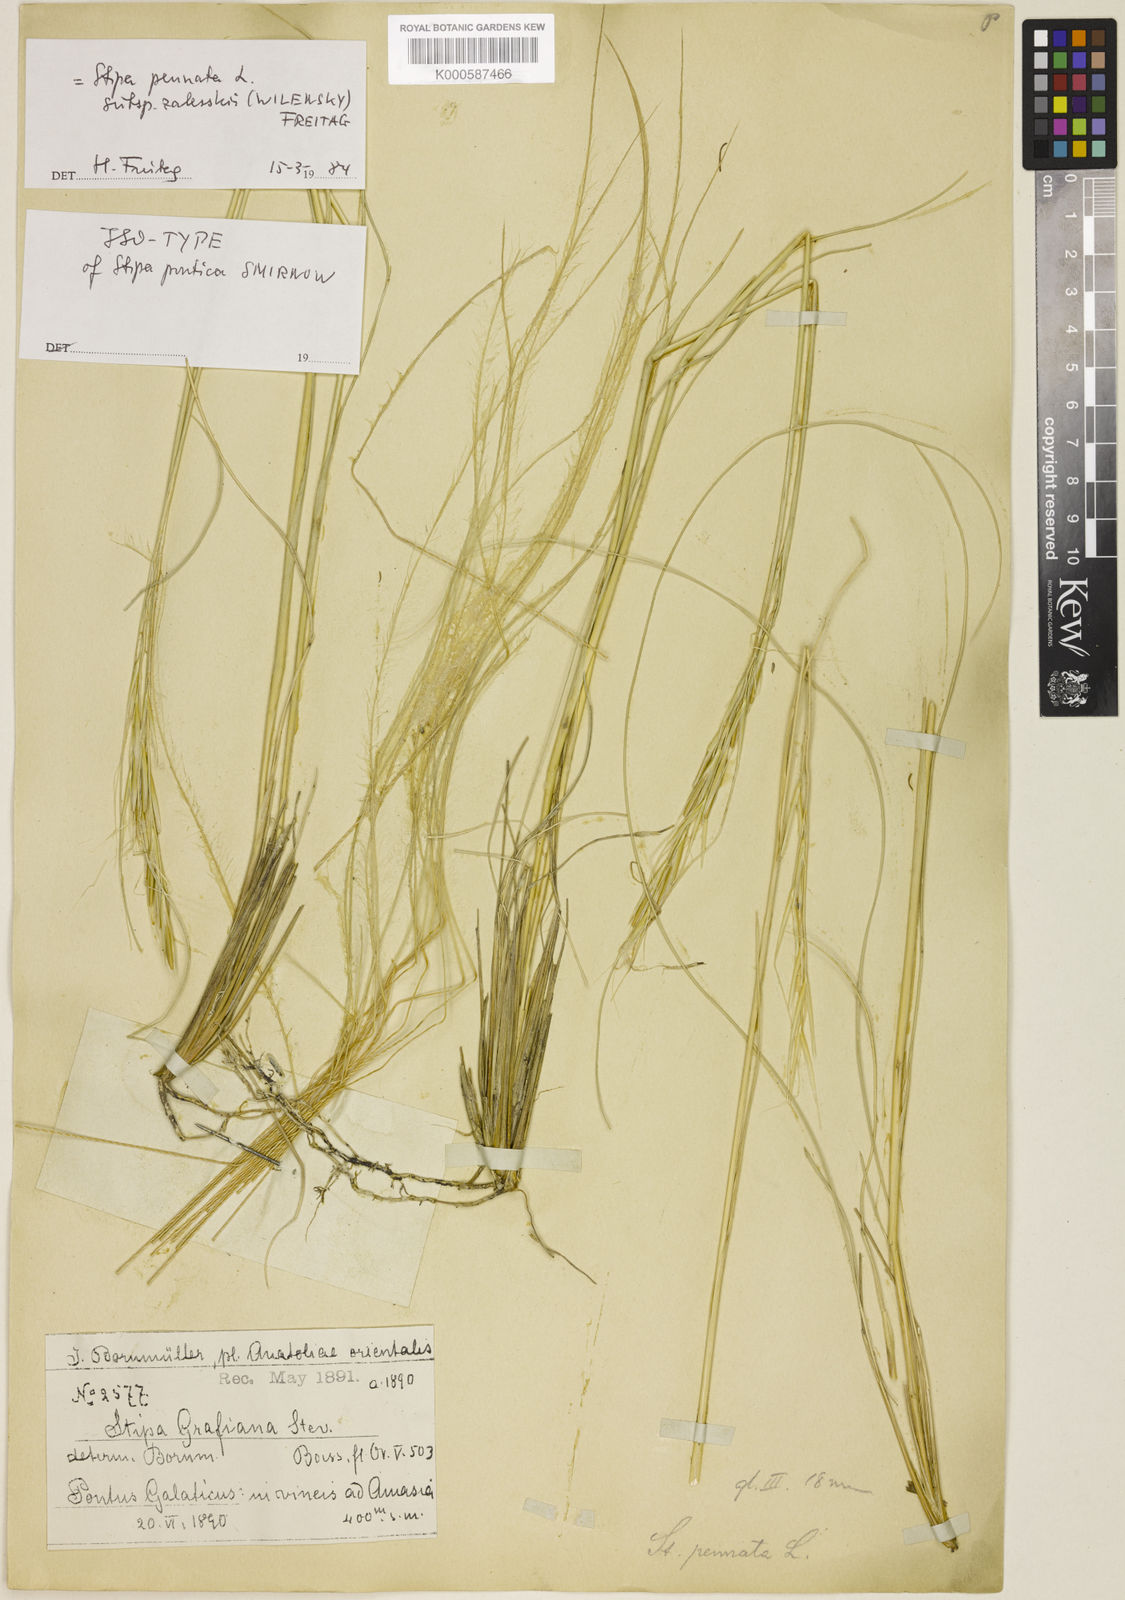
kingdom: Plantae
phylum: Tracheophyta
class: Liliopsida
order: Poales
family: Poaceae
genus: Stipa
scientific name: Stipa zalesskyi
